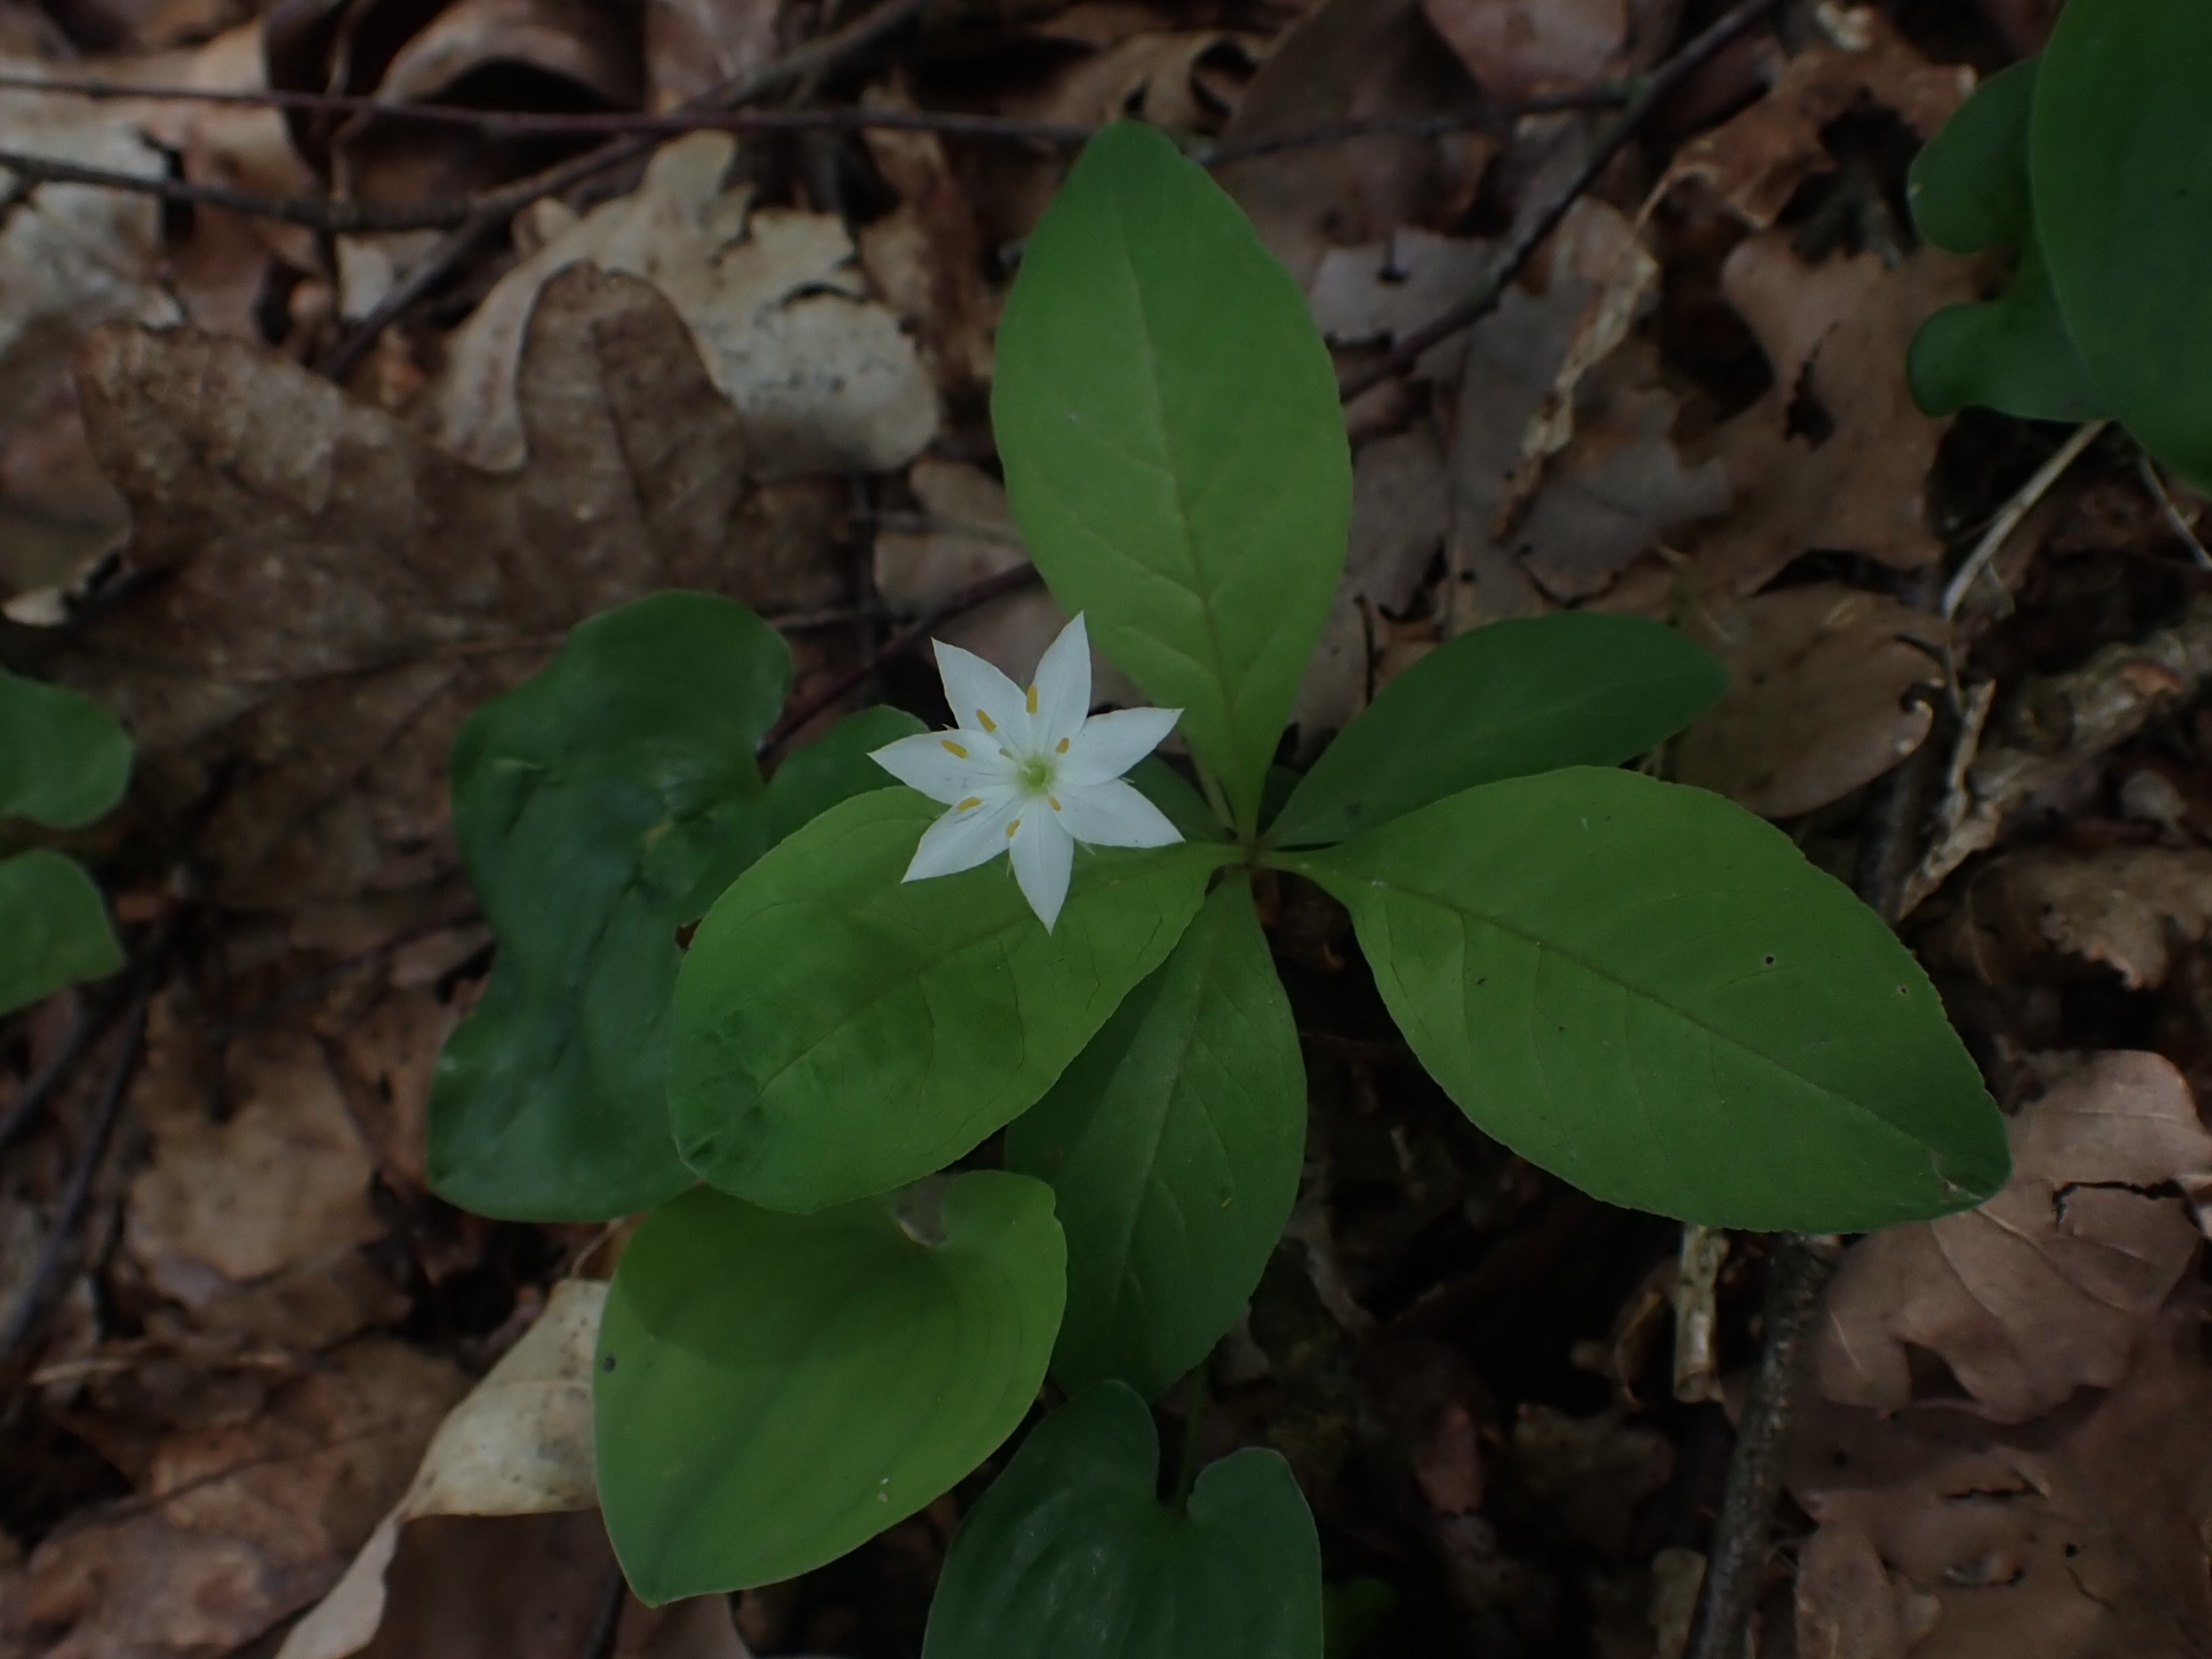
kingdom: Plantae
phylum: Tracheophyta
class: Magnoliopsida
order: Ericales
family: Primulaceae
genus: Lysimachia
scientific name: Lysimachia europaea
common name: Skovstjerne
